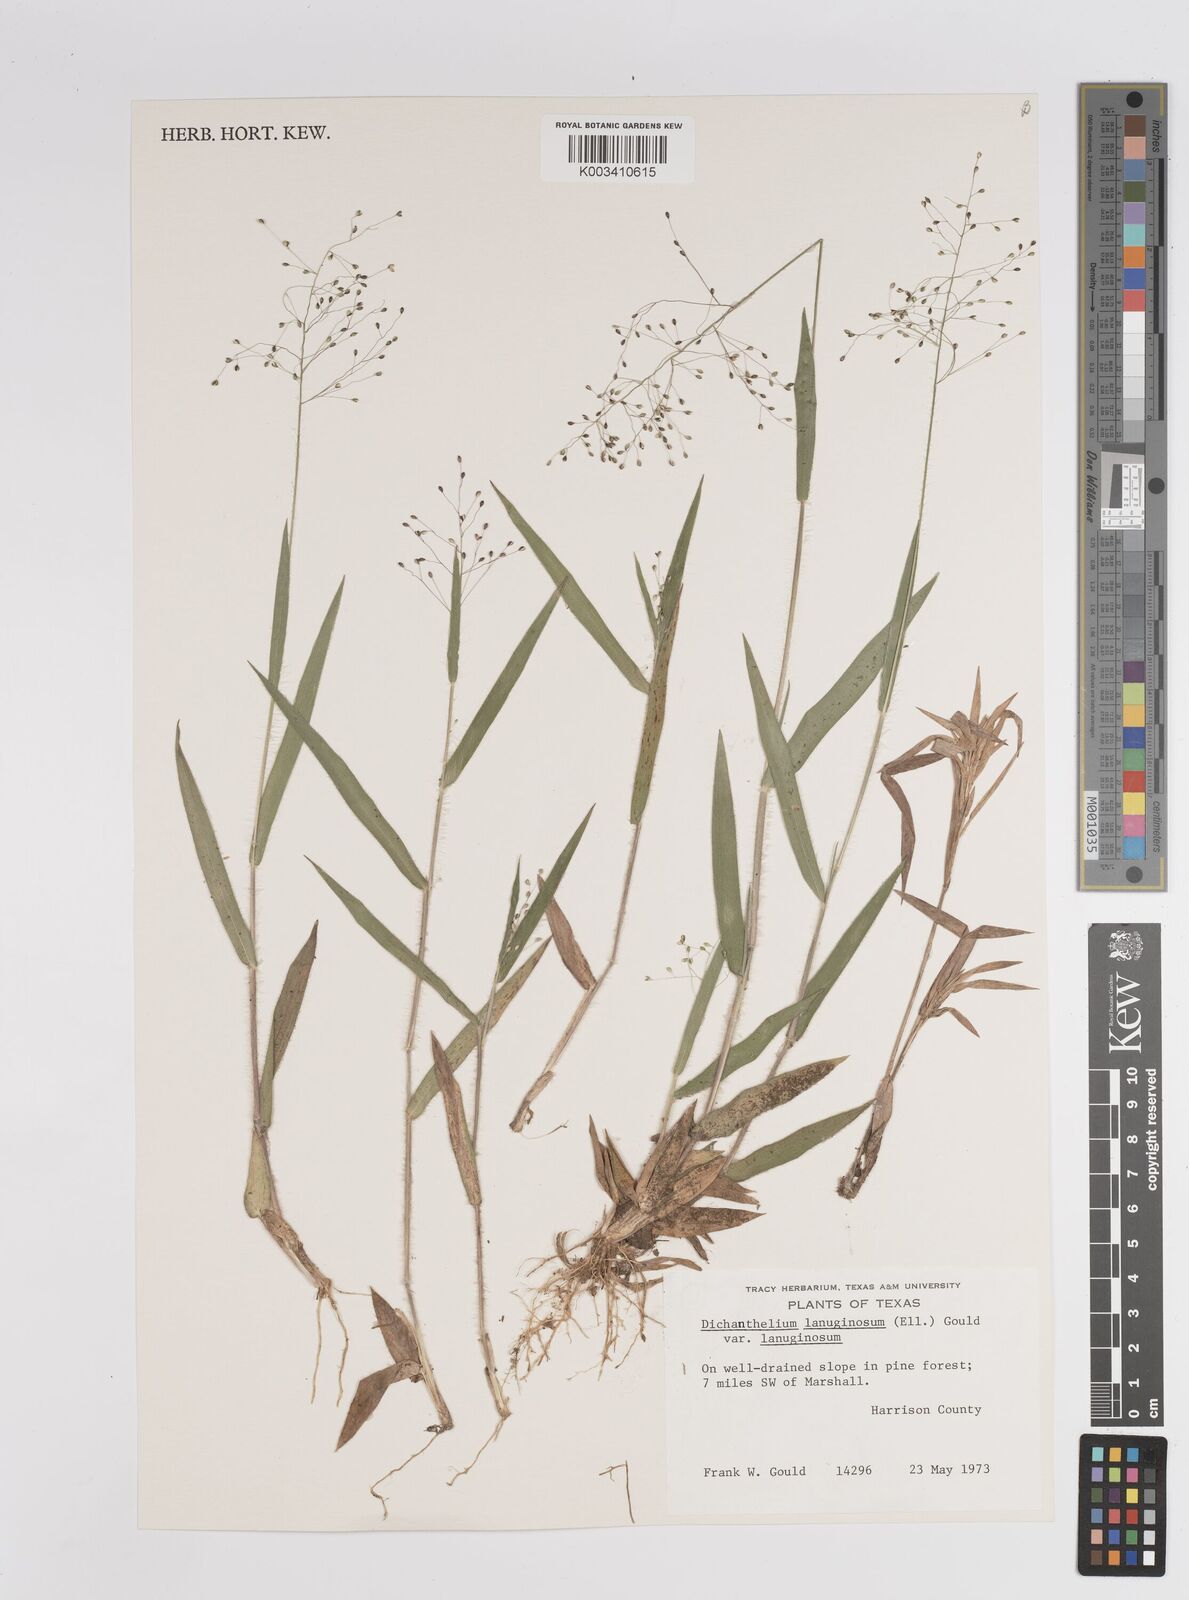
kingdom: Plantae
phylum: Tracheophyta
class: Liliopsida
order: Poales
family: Poaceae
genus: Dichanthelium
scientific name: Dichanthelium lanuginosum
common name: Woolly panicgrass
